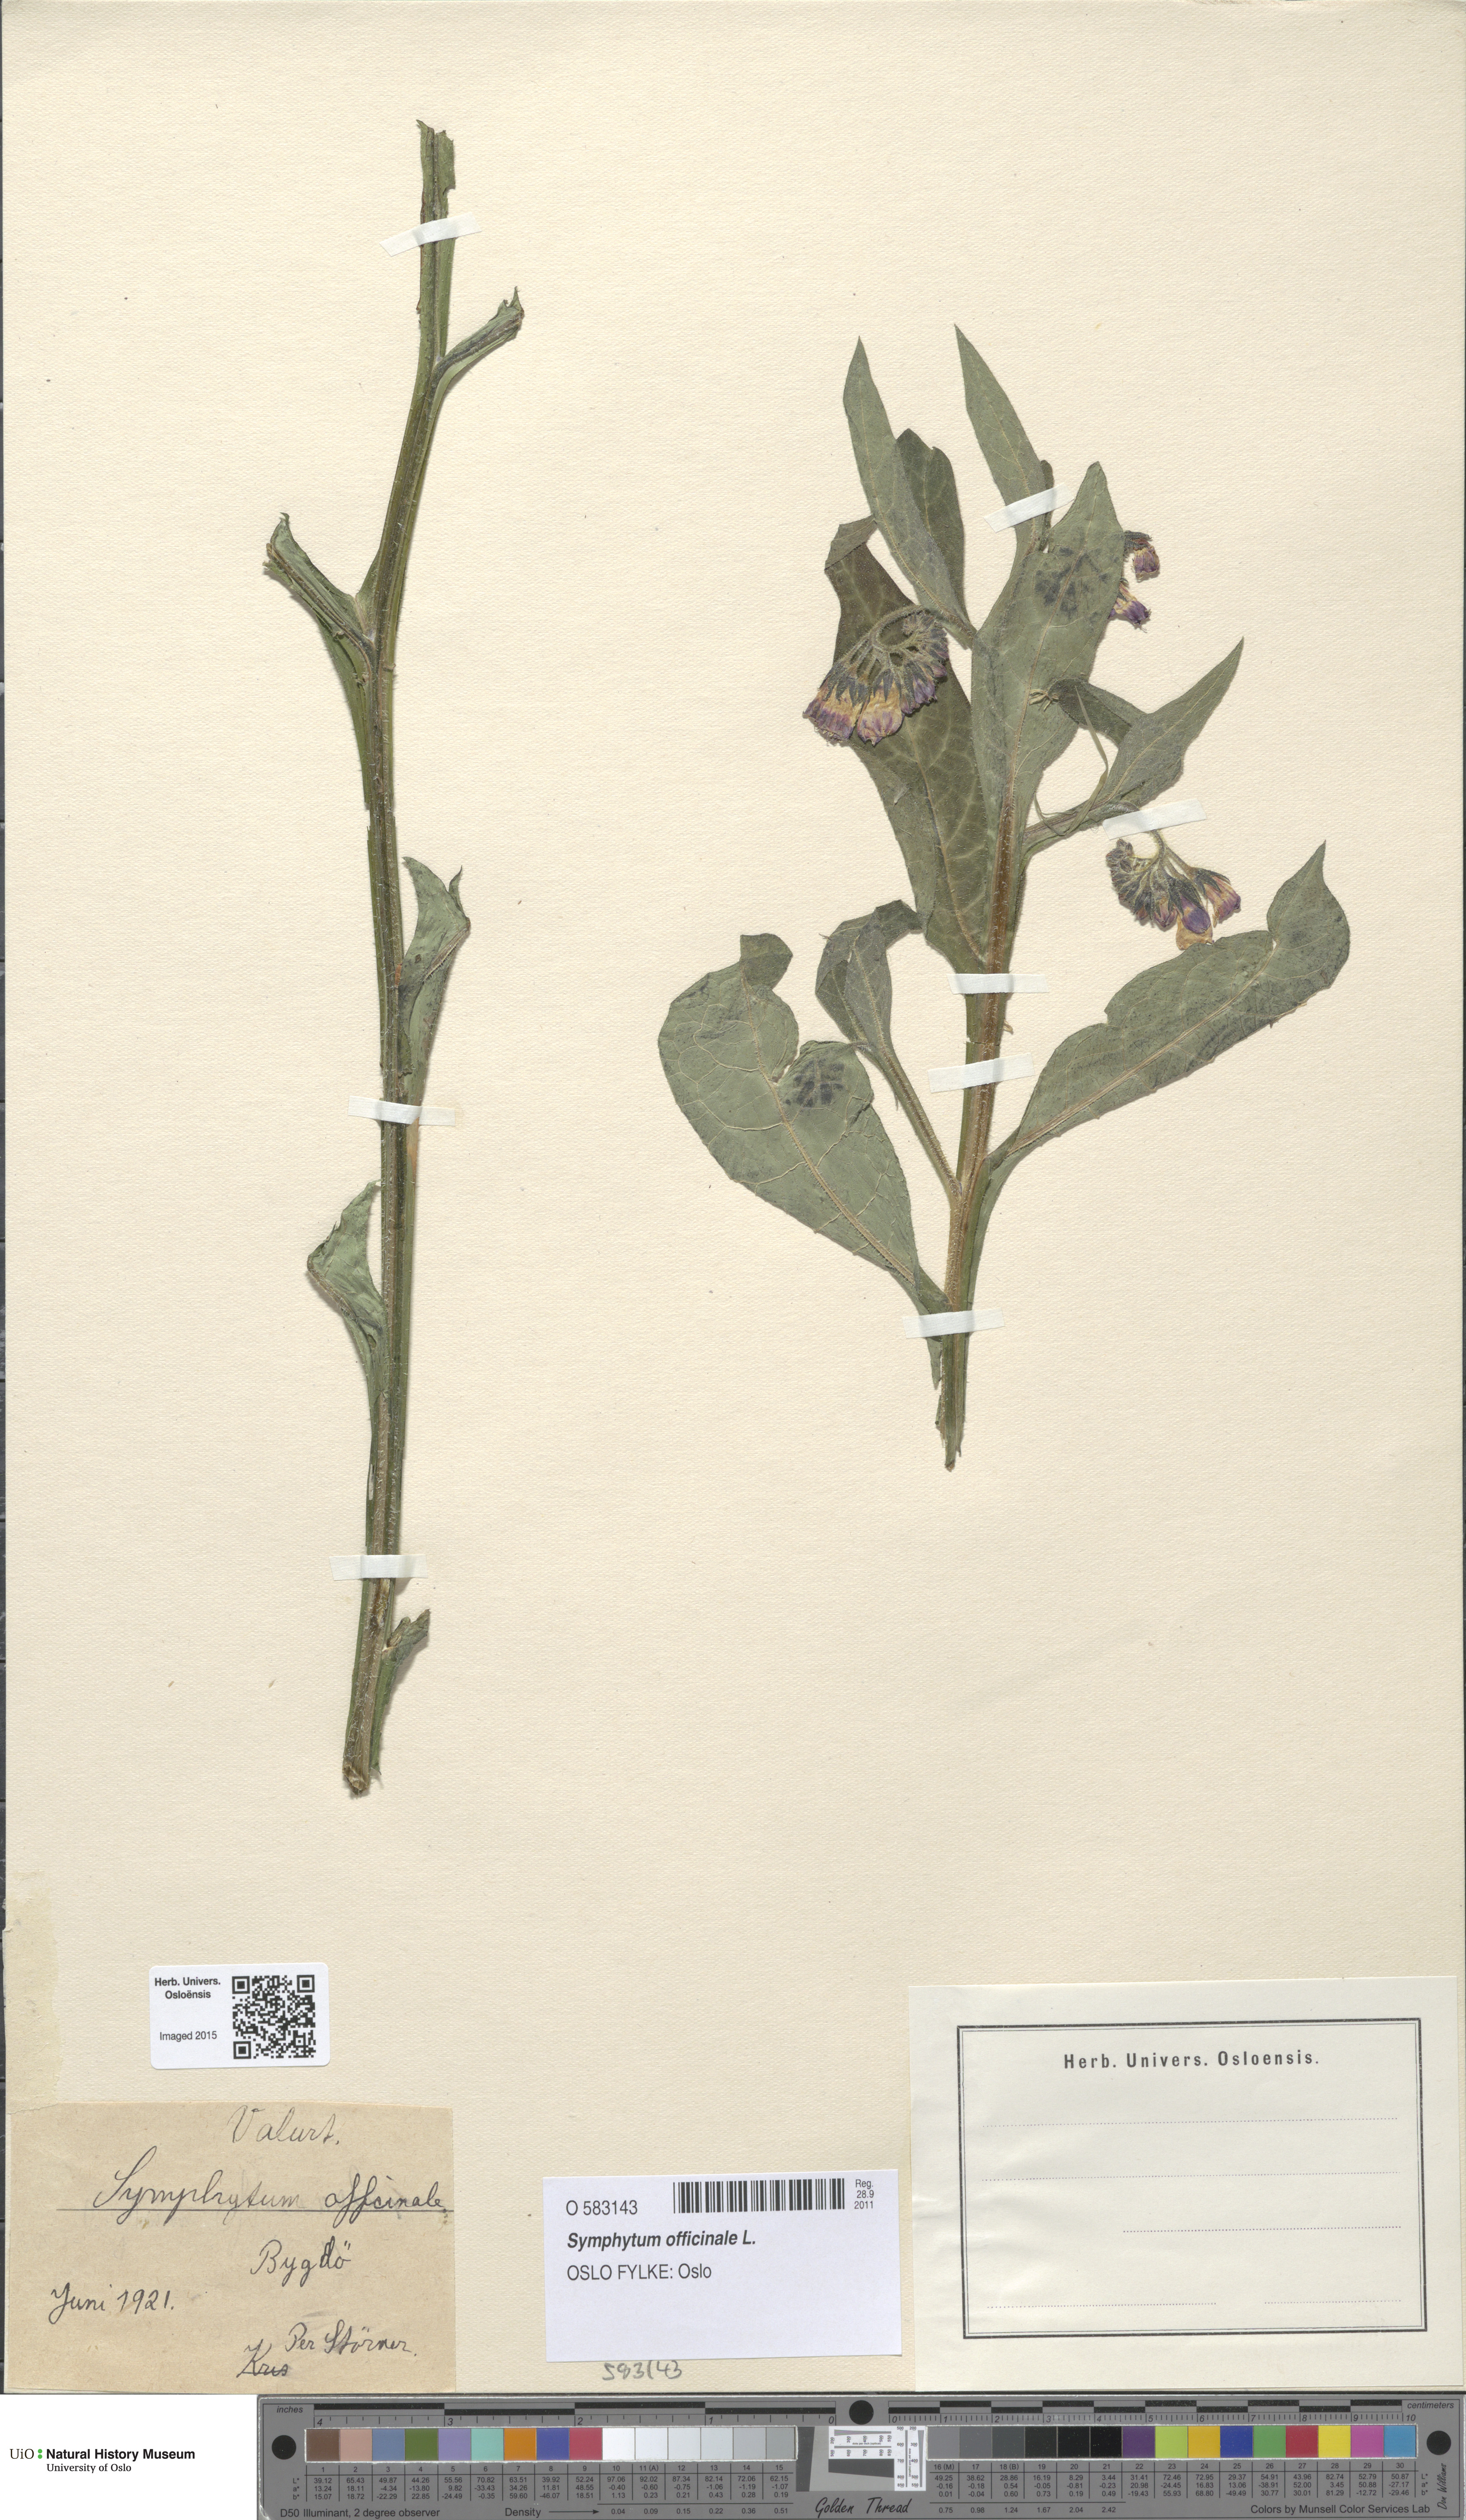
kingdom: Plantae
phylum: Tracheophyta
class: Magnoliopsida
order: Boraginales
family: Boraginaceae
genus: Symphytum
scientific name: Symphytum officinale
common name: Common comfrey
